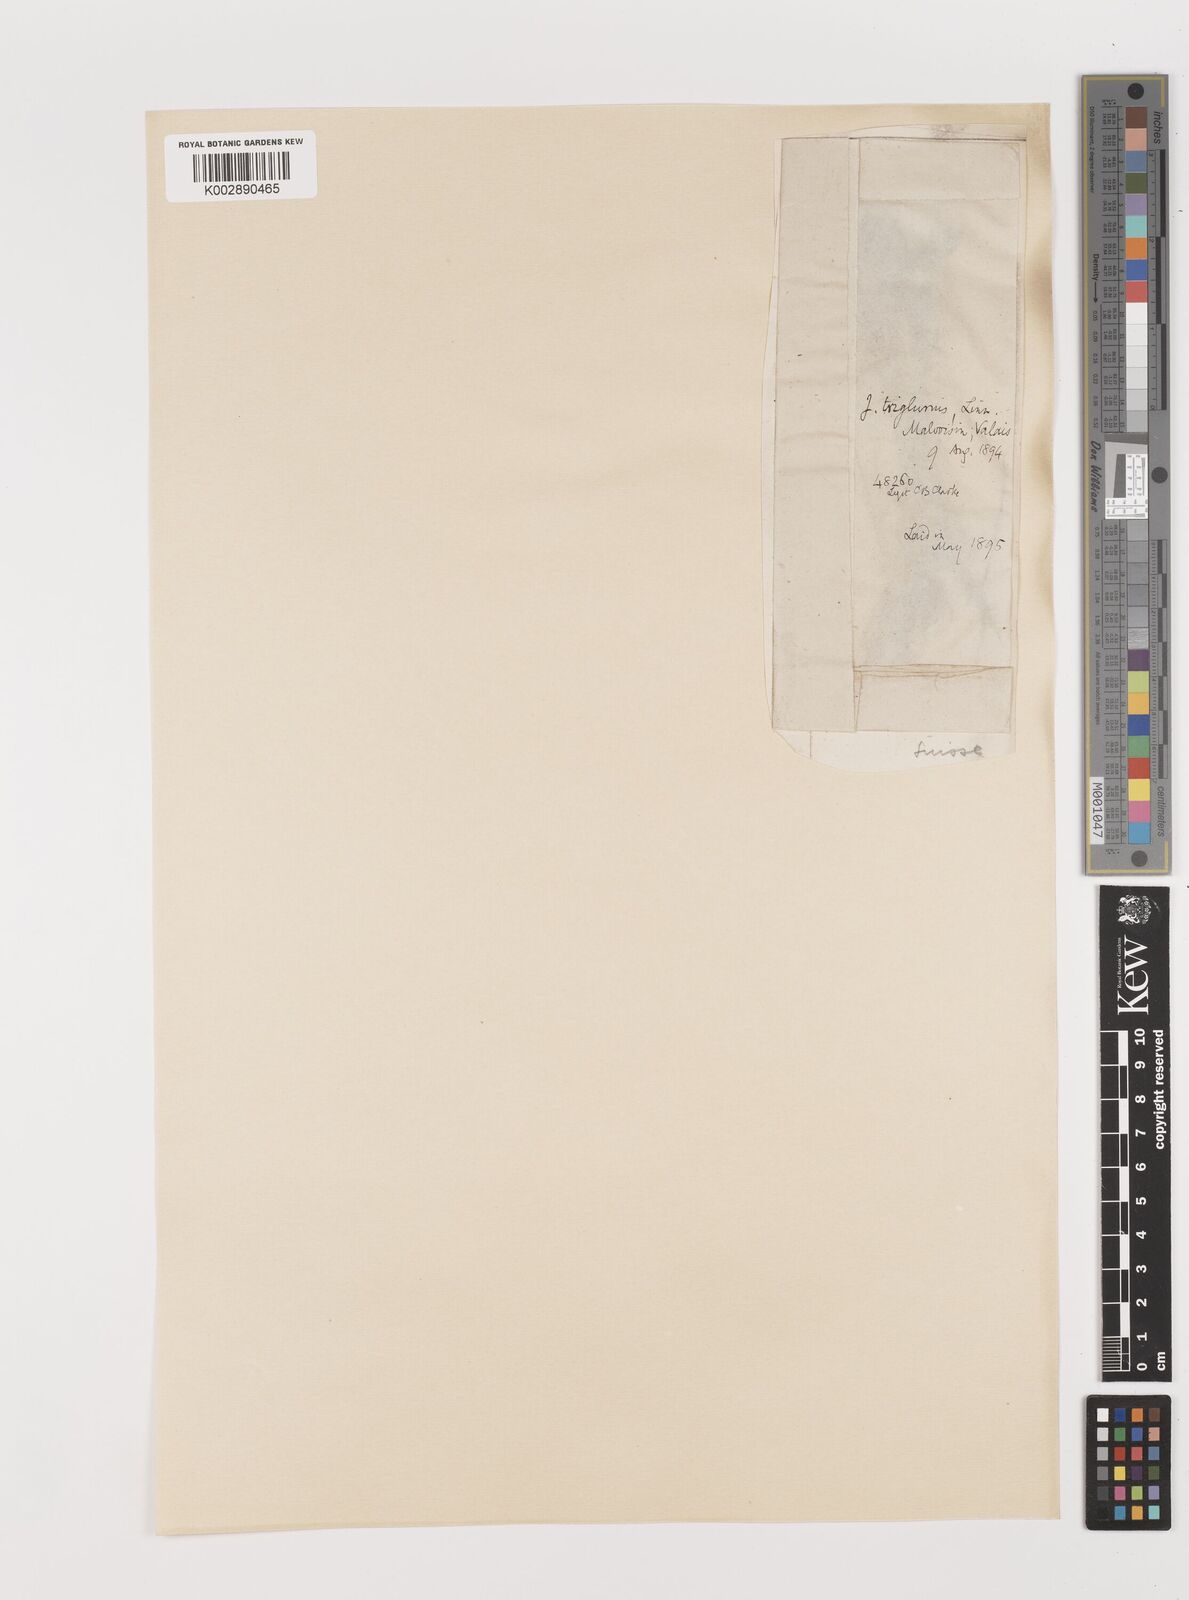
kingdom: Plantae
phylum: Tracheophyta
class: Liliopsida
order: Poales
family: Juncaceae
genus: Juncus
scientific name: Juncus triglumis
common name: Three-flowered rush
